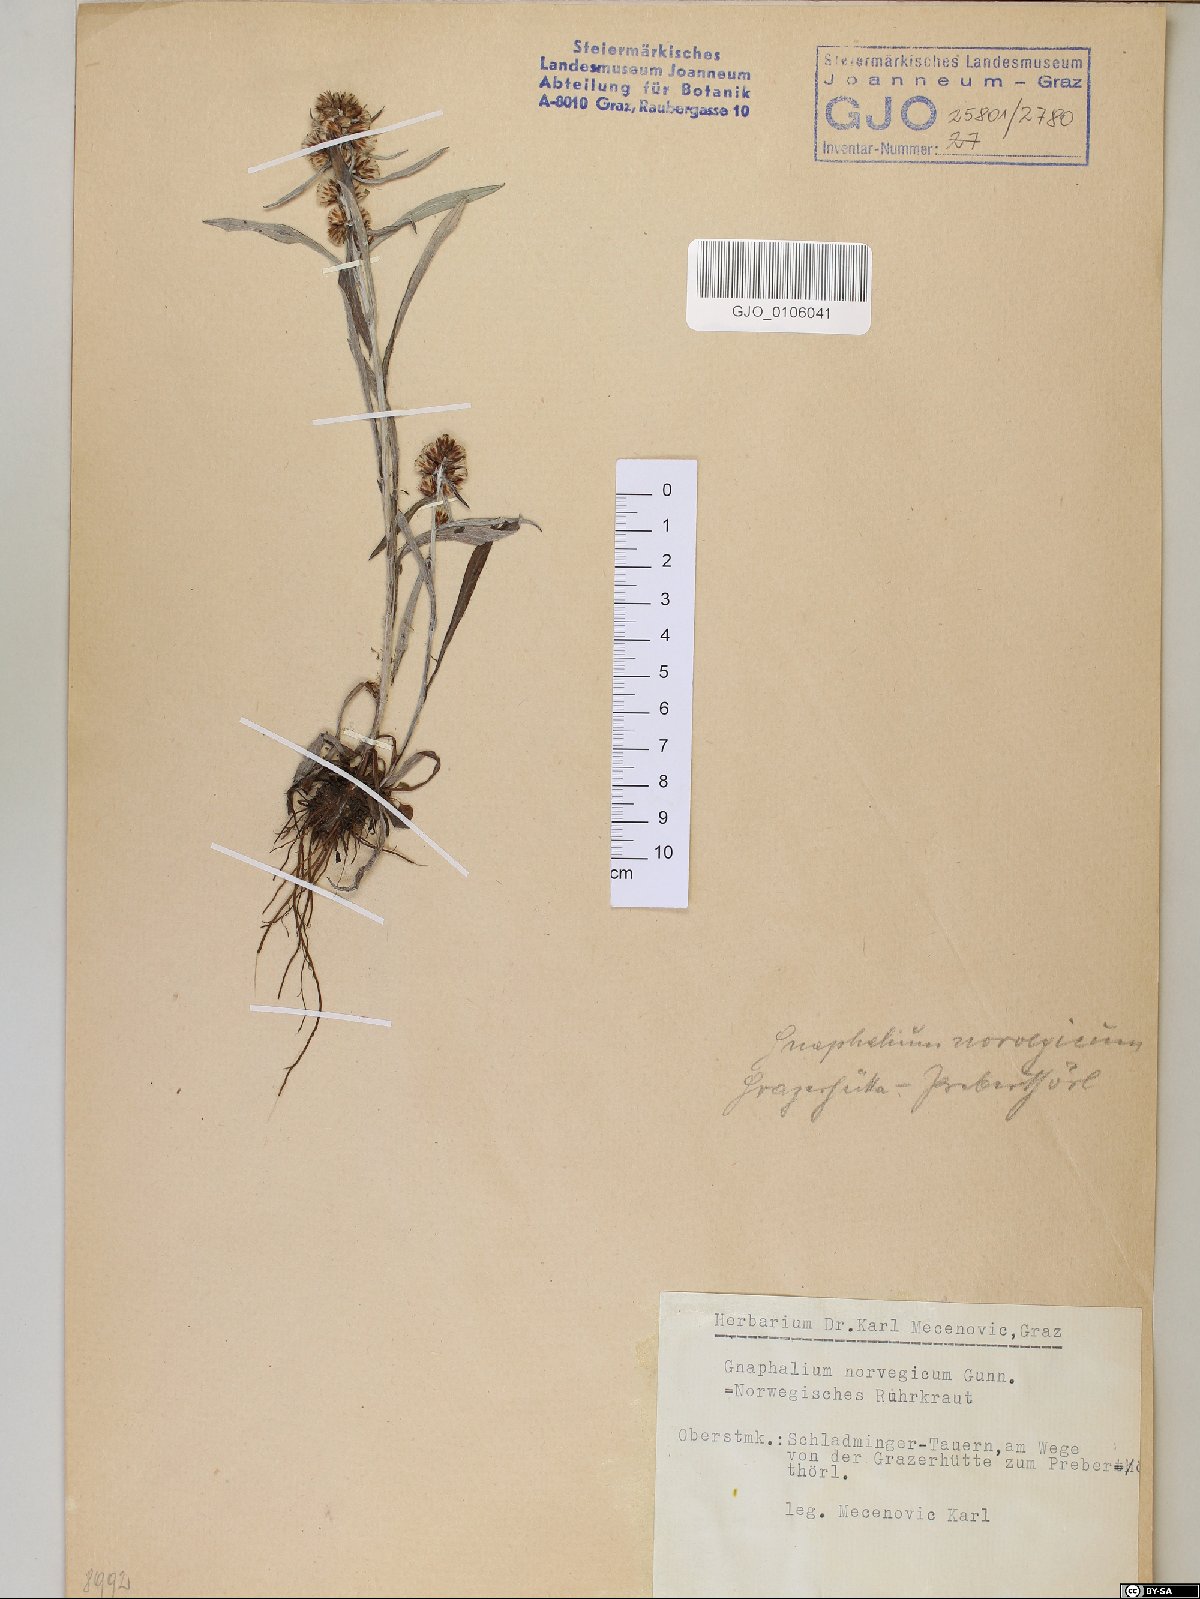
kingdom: Plantae
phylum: Tracheophyta
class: Magnoliopsida
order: Asterales
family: Asteraceae
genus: Omalotheca
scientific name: Omalotheca norvegica
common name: Norwegian arctic-cudweed
